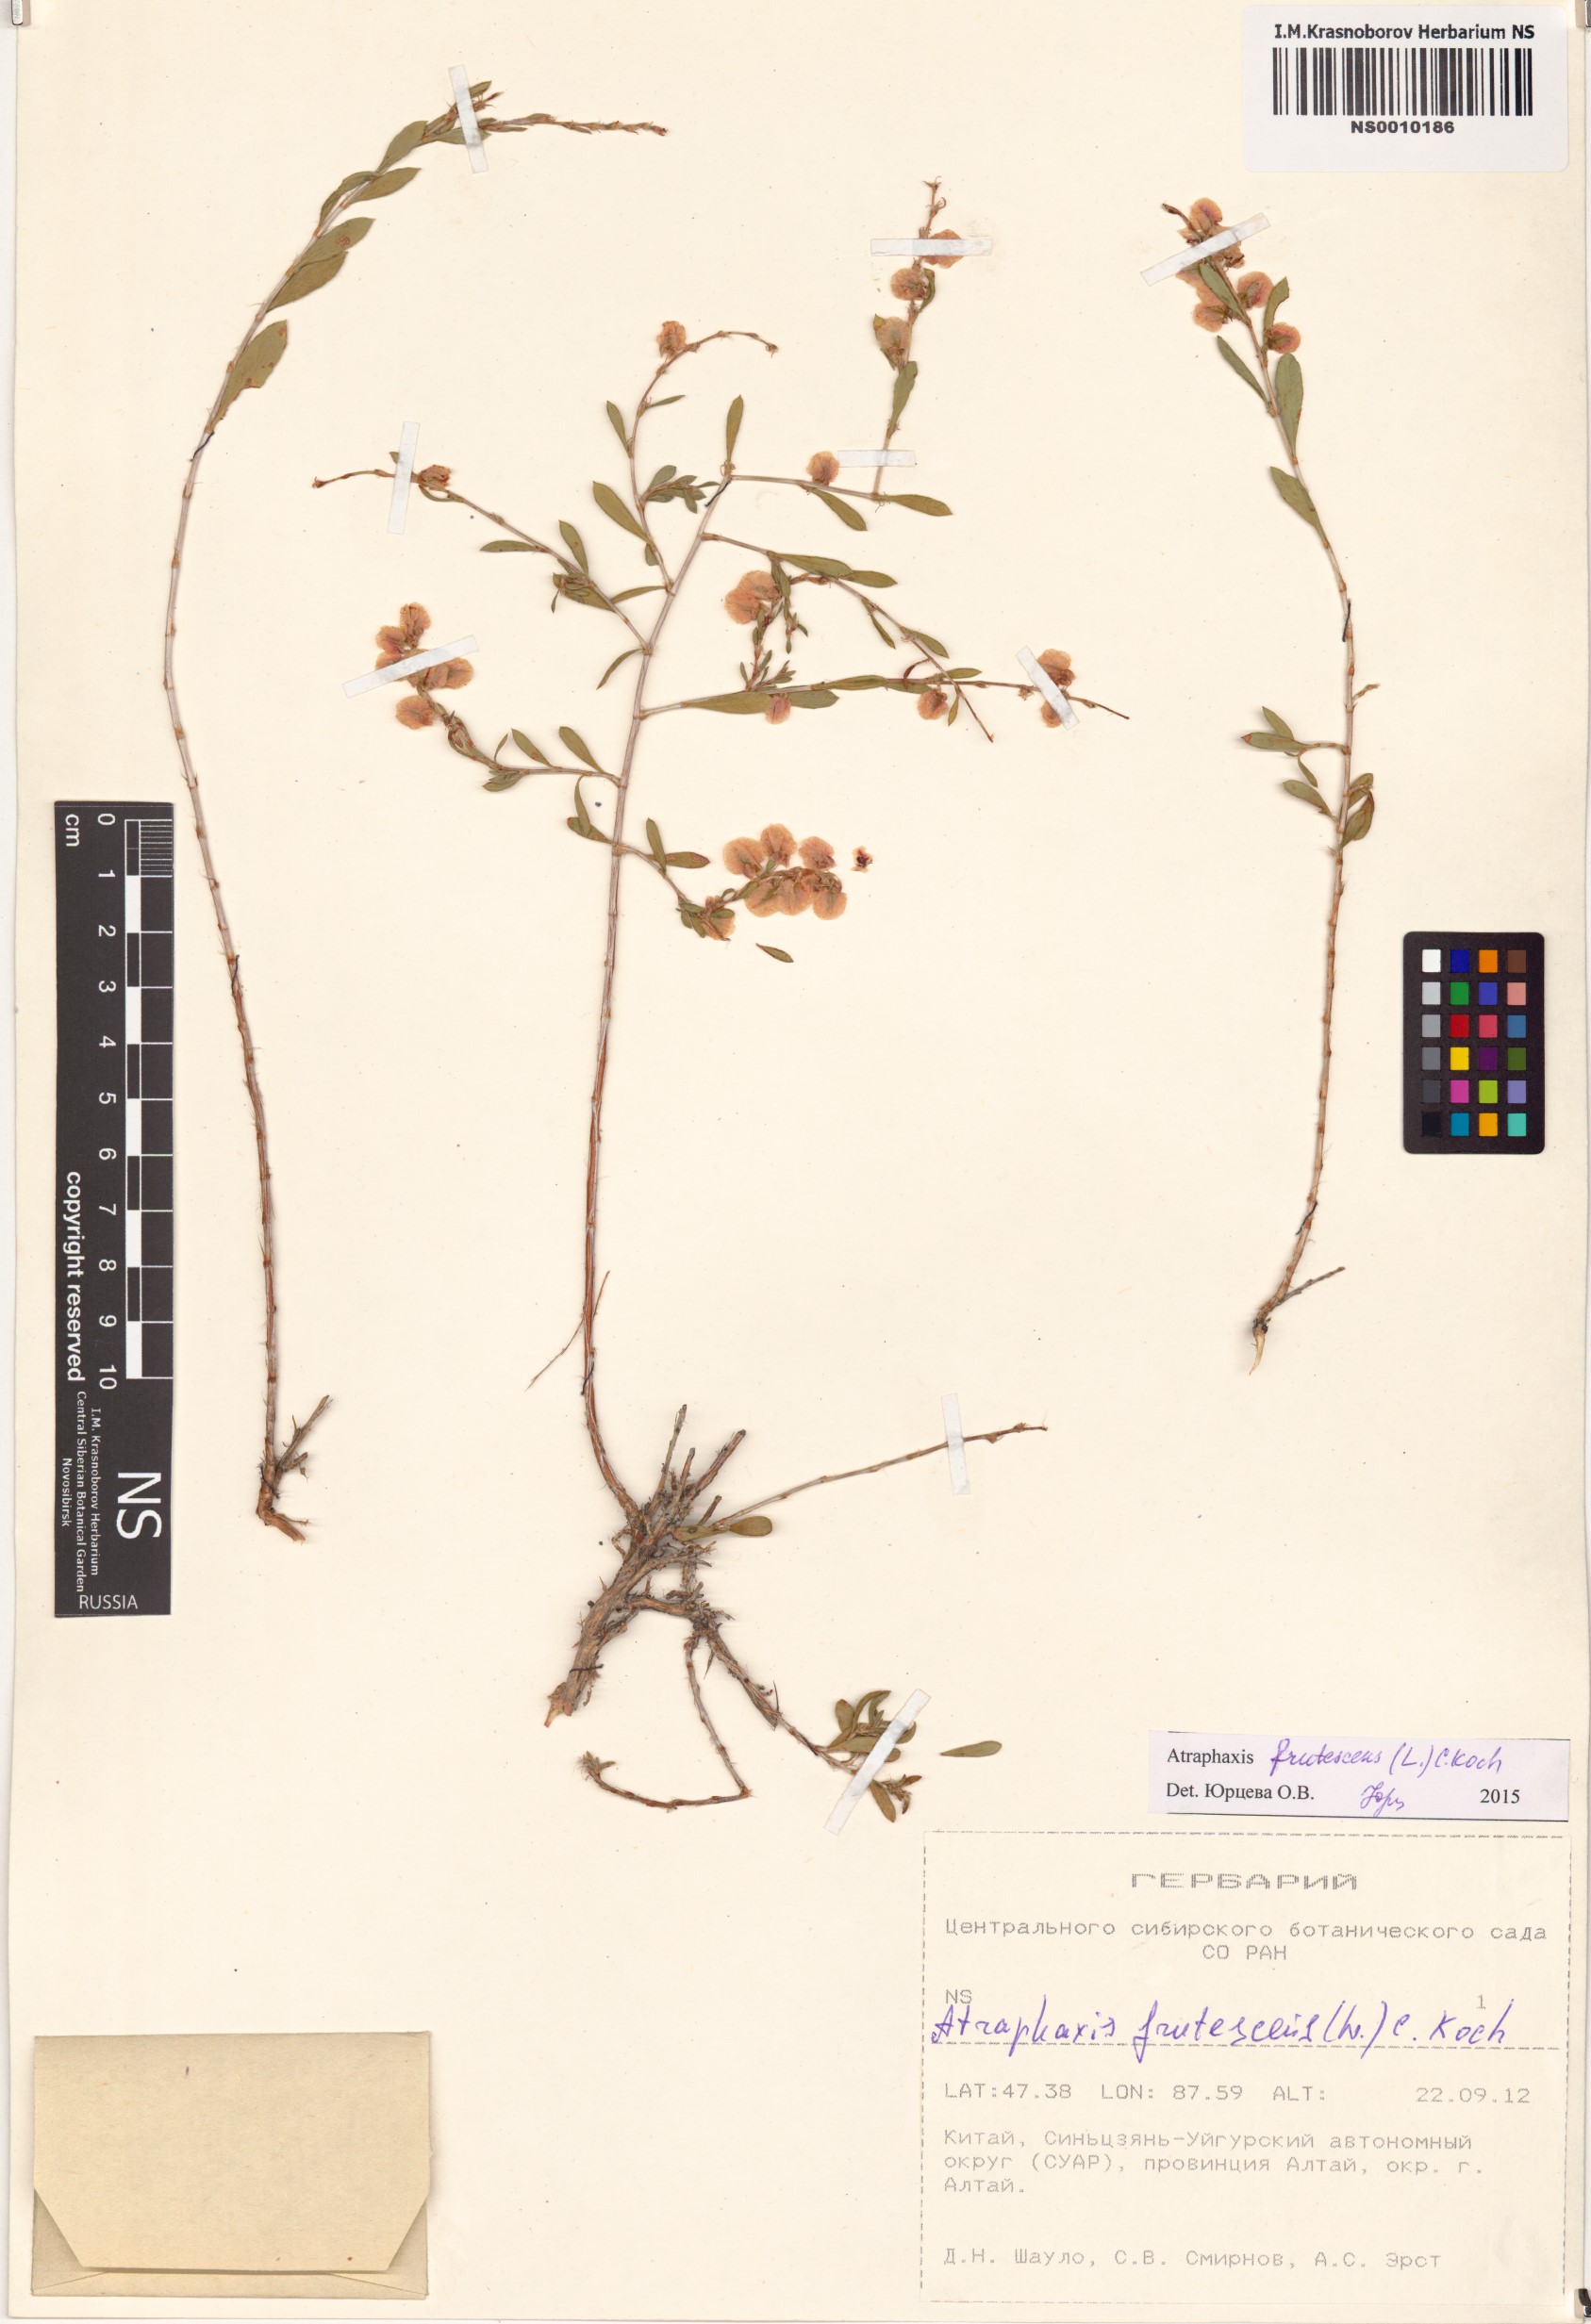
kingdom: Plantae
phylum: Tracheophyta
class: Magnoliopsida
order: Caryophyllales
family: Polygonaceae
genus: Atraphaxis
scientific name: Atraphaxis frutescens
